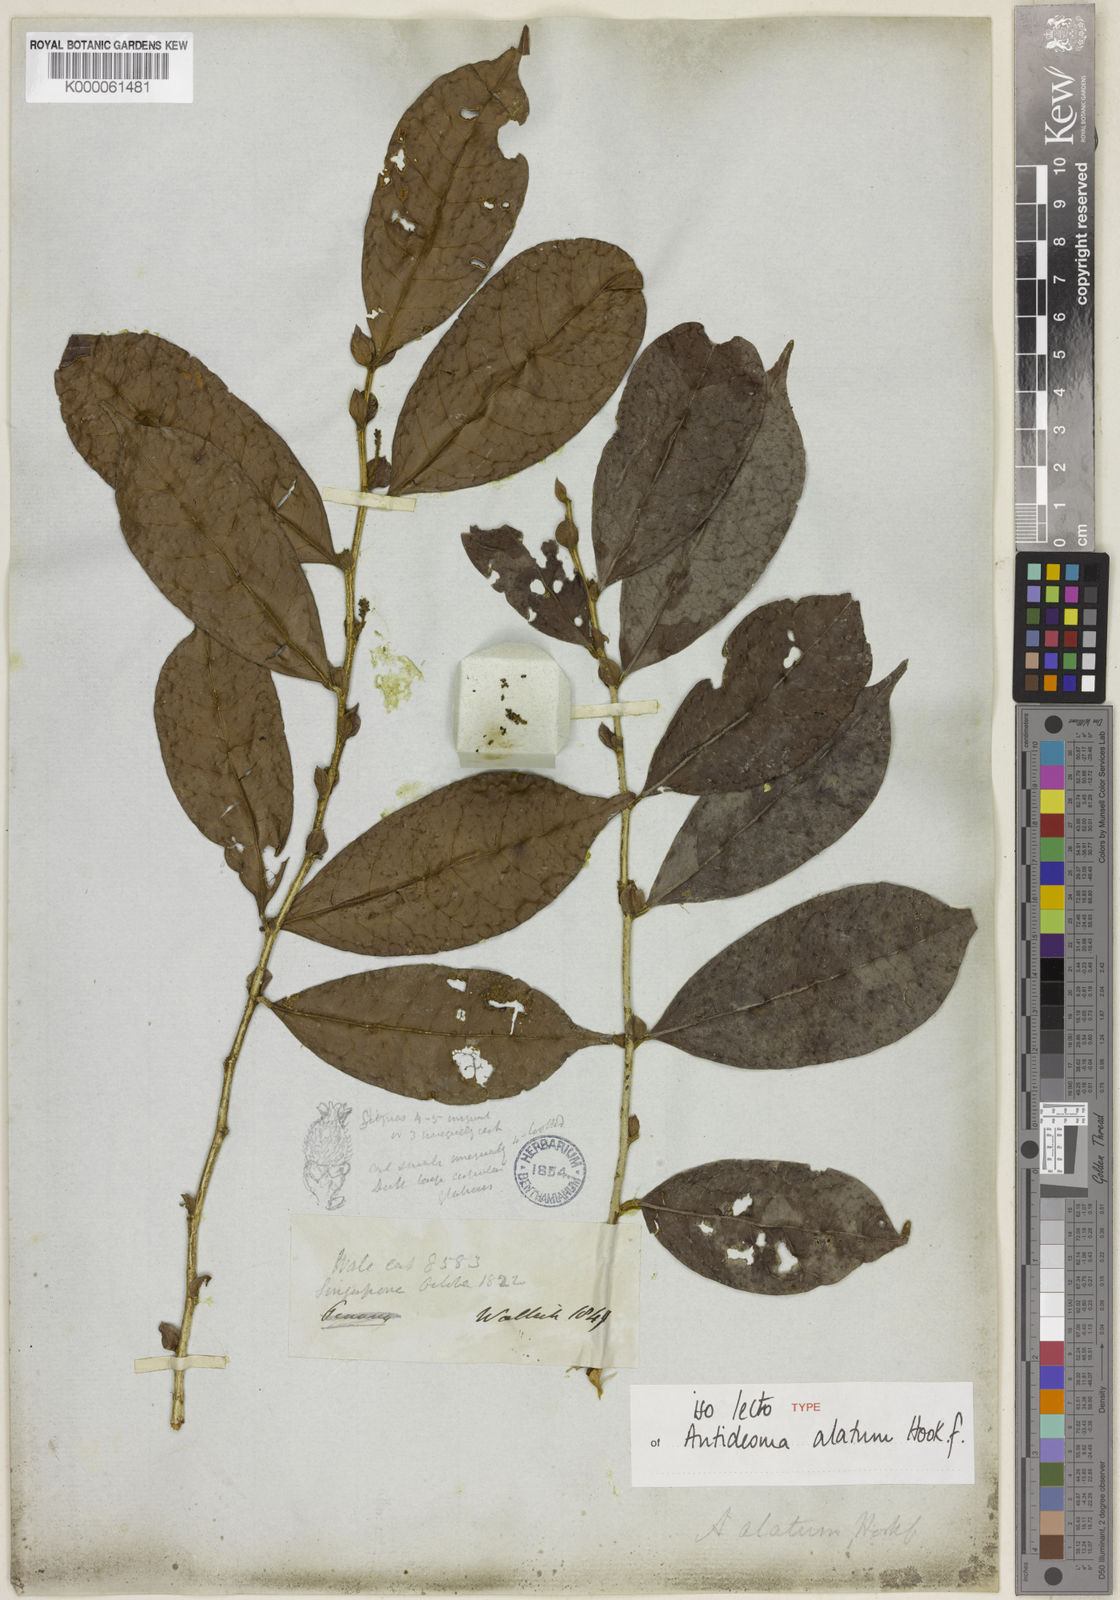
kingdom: Plantae
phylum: Tracheophyta
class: Magnoliopsida
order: Malpighiales
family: Phyllanthaceae
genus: Antidesma
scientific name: Antidesma neurocarpum
